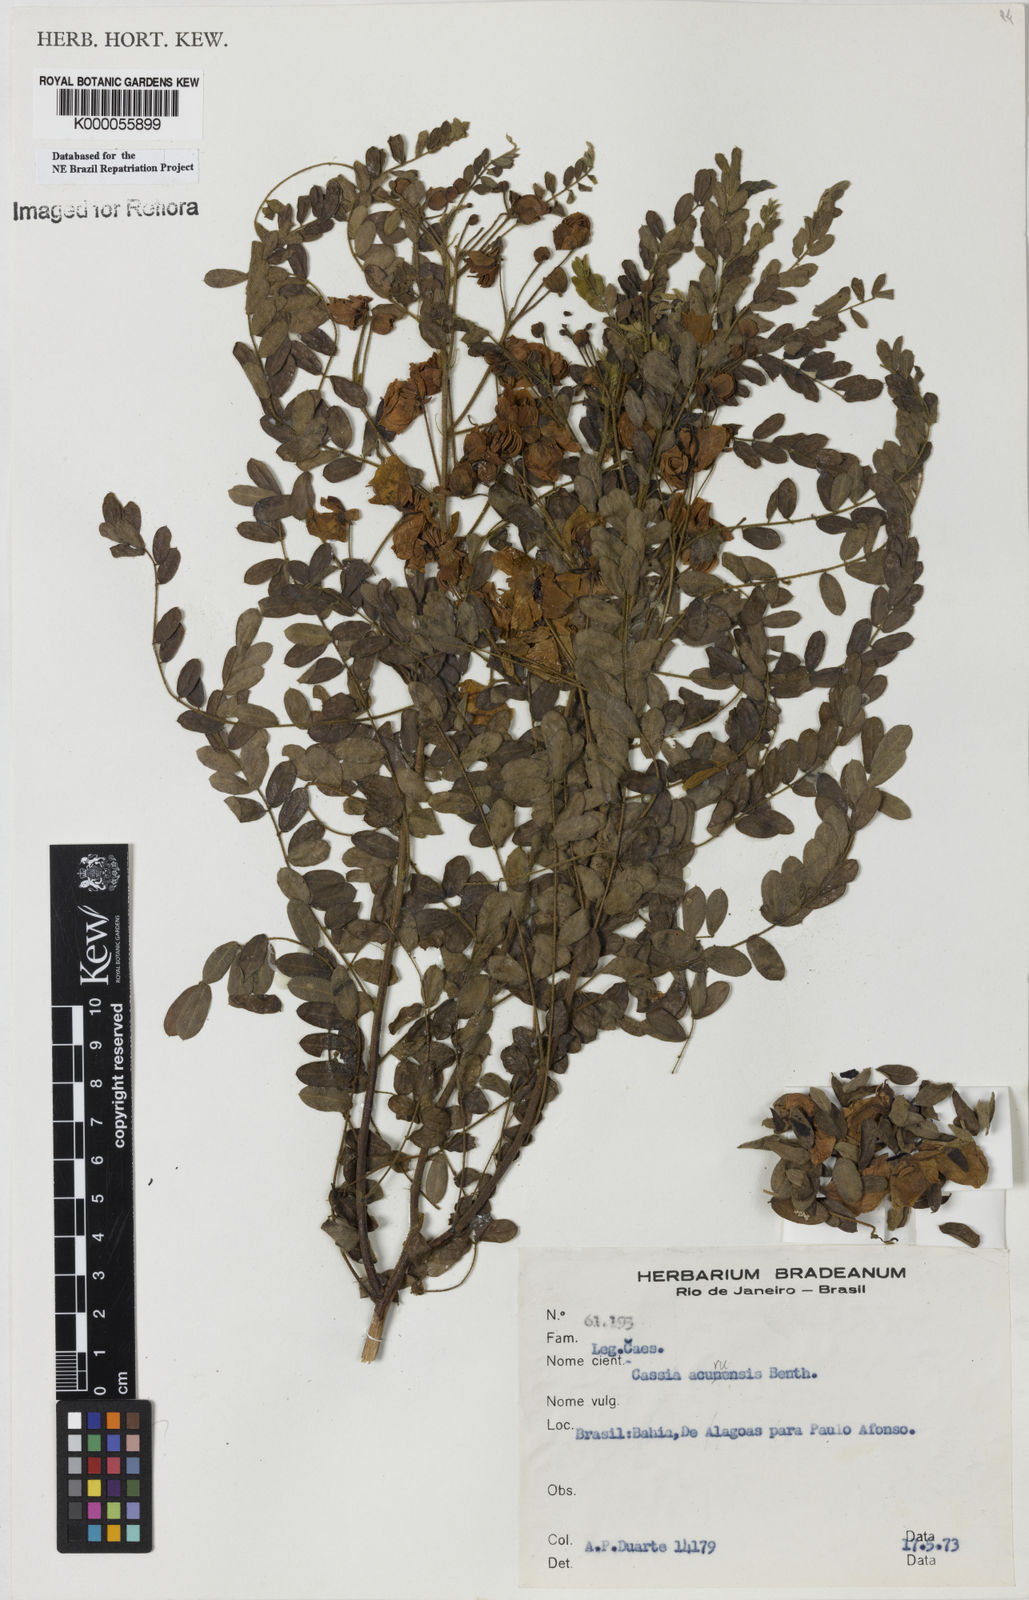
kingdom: Plantae
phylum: Tracheophyta
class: Magnoliopsida
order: Fabales
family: Fabaceae
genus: Senna
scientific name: Senna acuruensis
